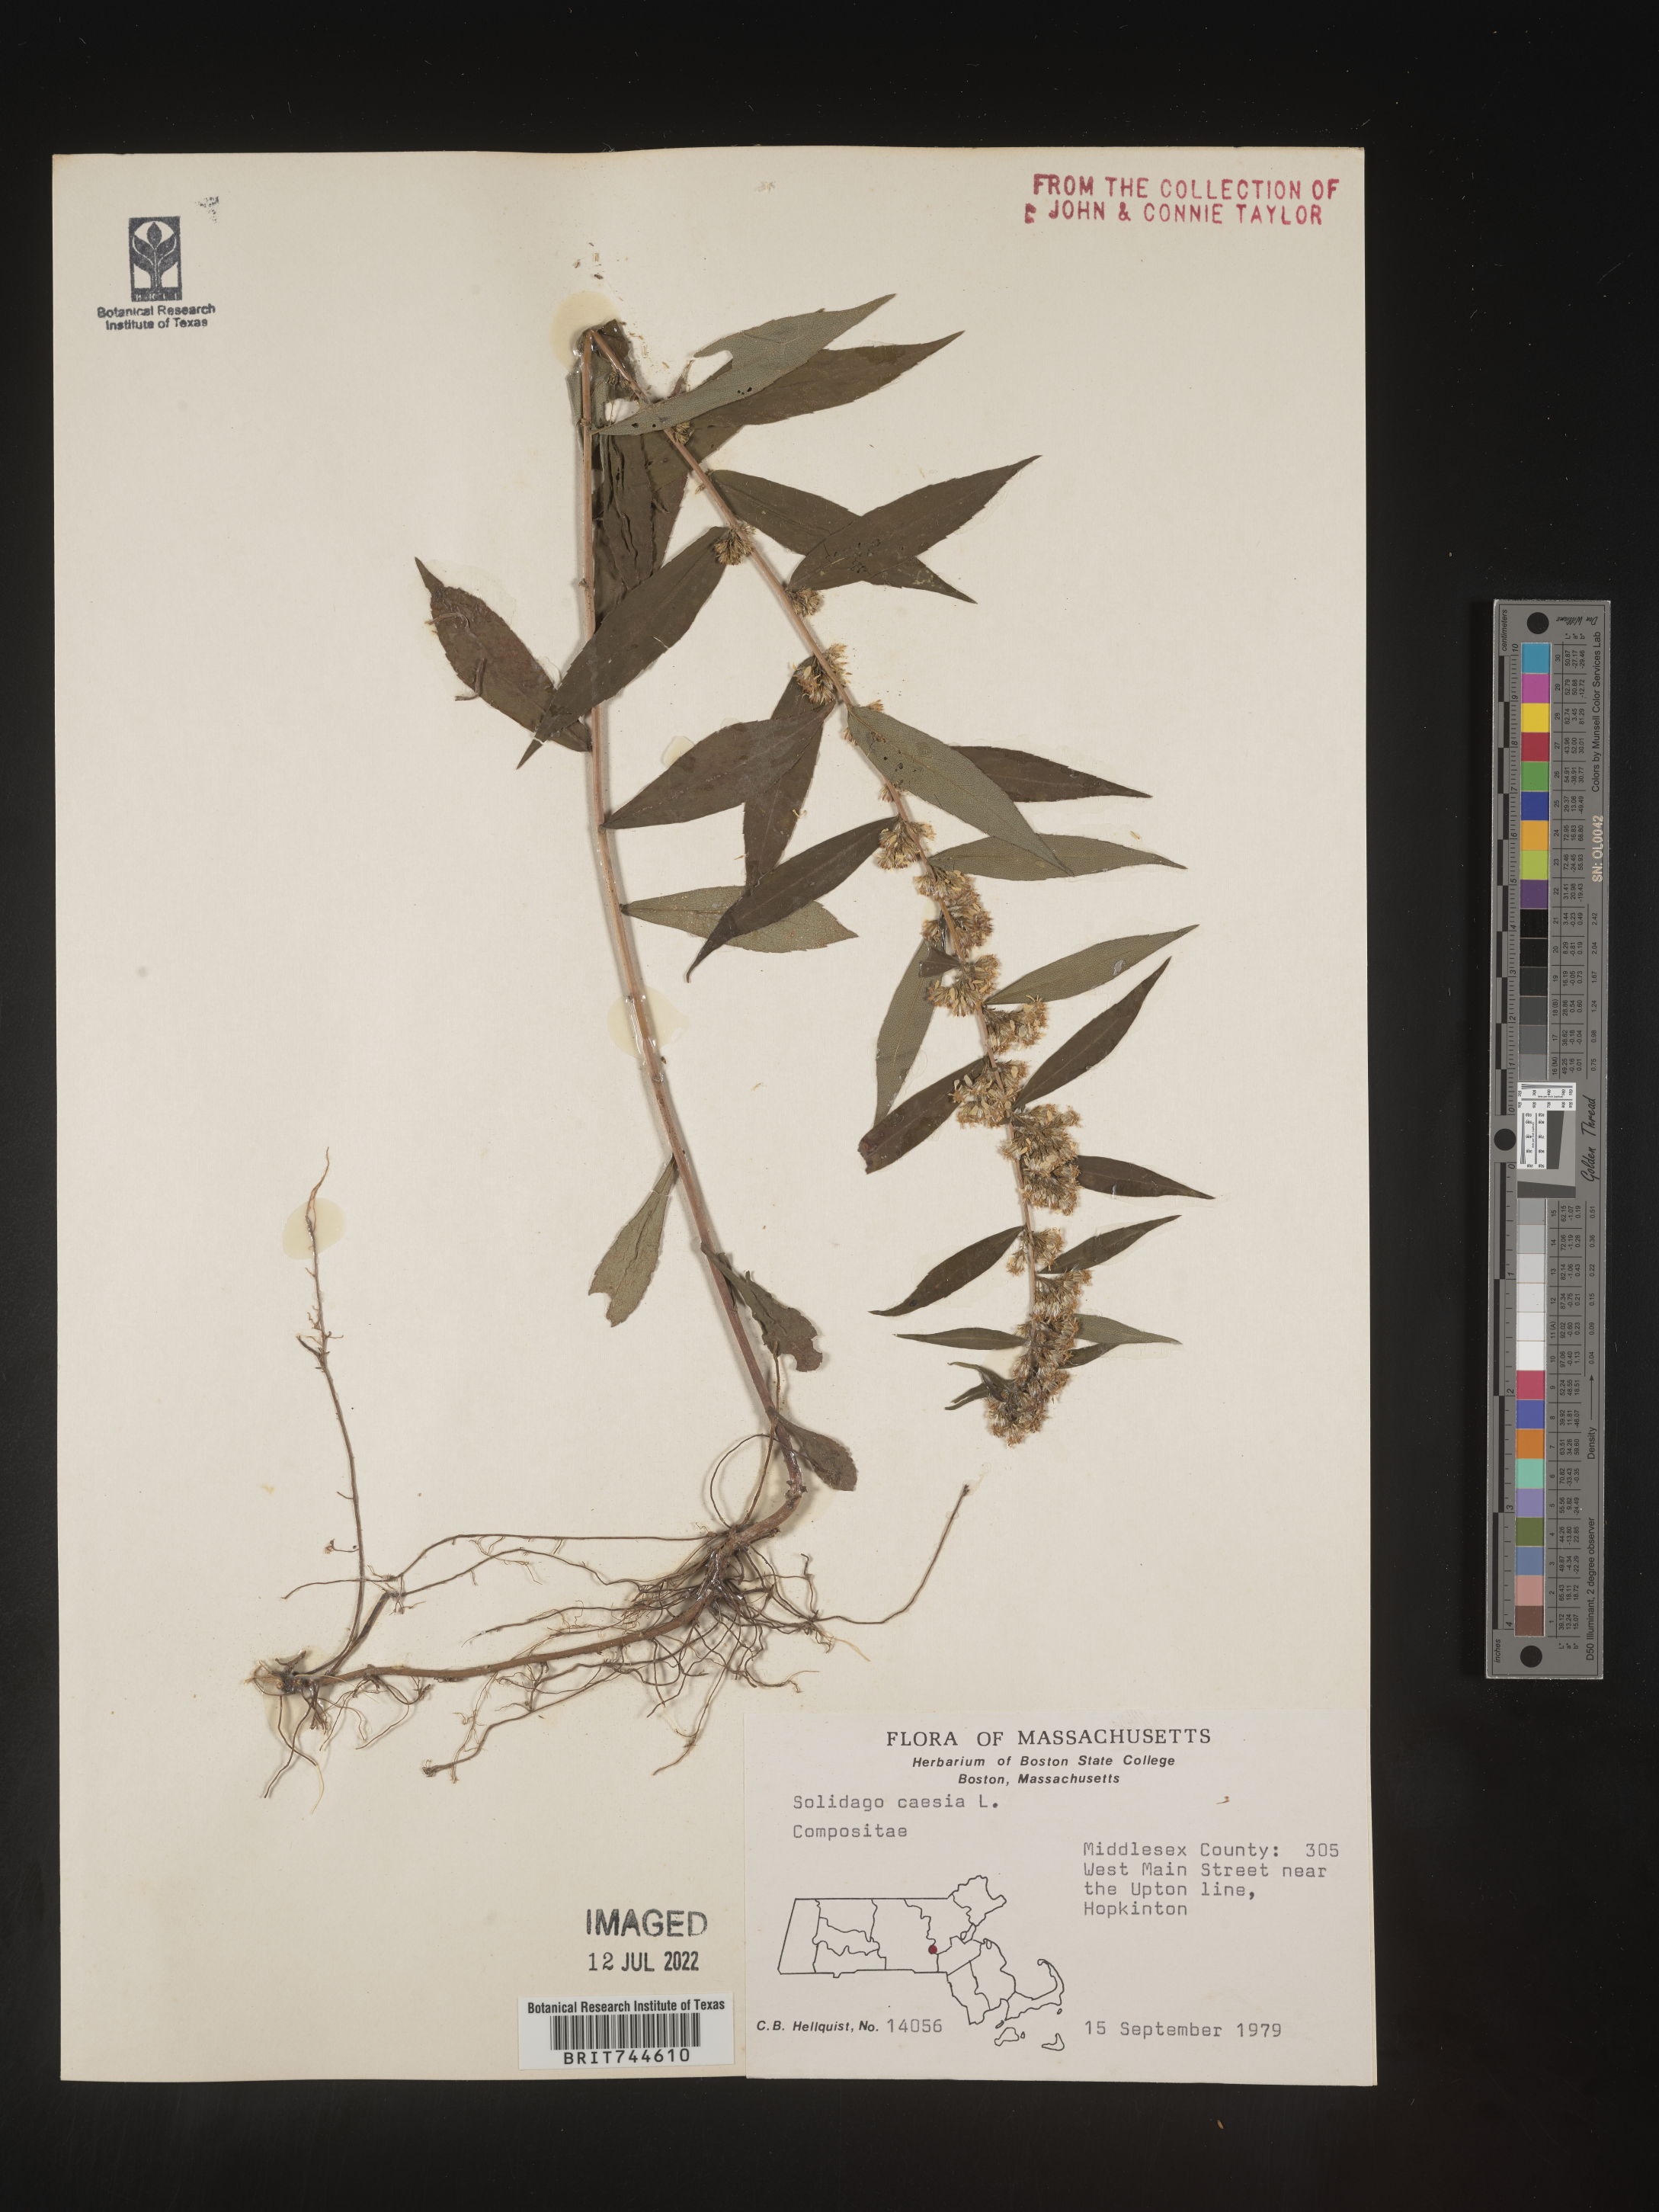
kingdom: Plantae
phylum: Tracheophyta
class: Magnoliopsida
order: Asterales
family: Asteraceae
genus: Solidago
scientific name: Solidago caesia
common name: Woodland goldenrod
